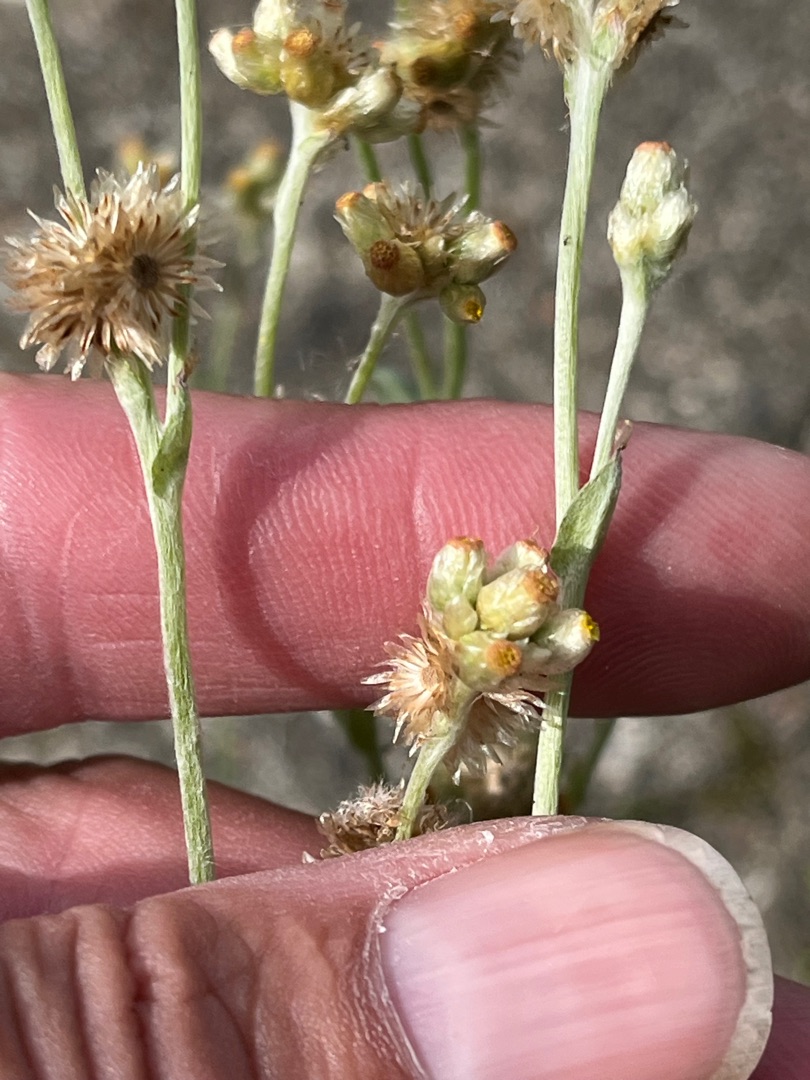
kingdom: Plantae
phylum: Tracheophyta
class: Magnoliopsida
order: Asterales
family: Asteraceae
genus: Helichrysum
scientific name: Helichrysum luteoalbum
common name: Gulhvid evighedsblomst
